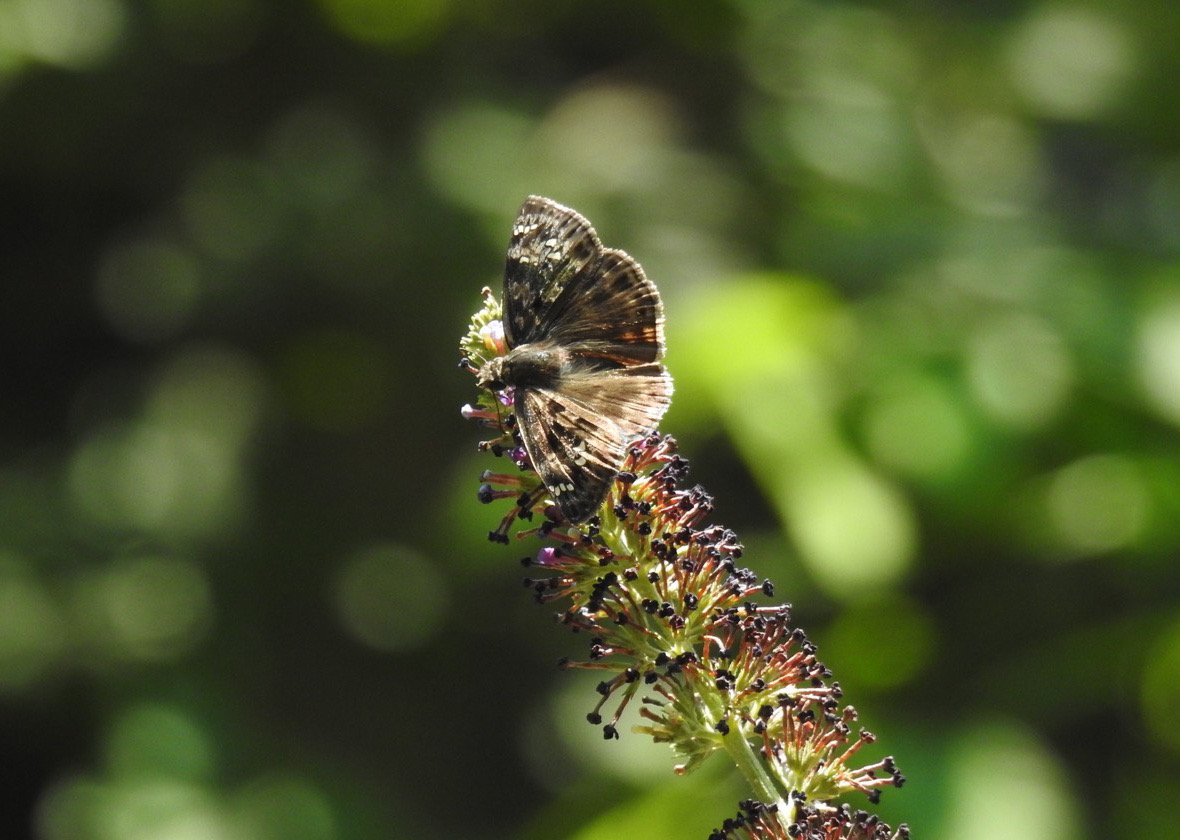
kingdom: Animalia
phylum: Arthropoda
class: Insecta
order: Lepidoptera
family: Hesperiidae
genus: Gesta
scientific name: Gesta
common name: Horace's Duskywing
